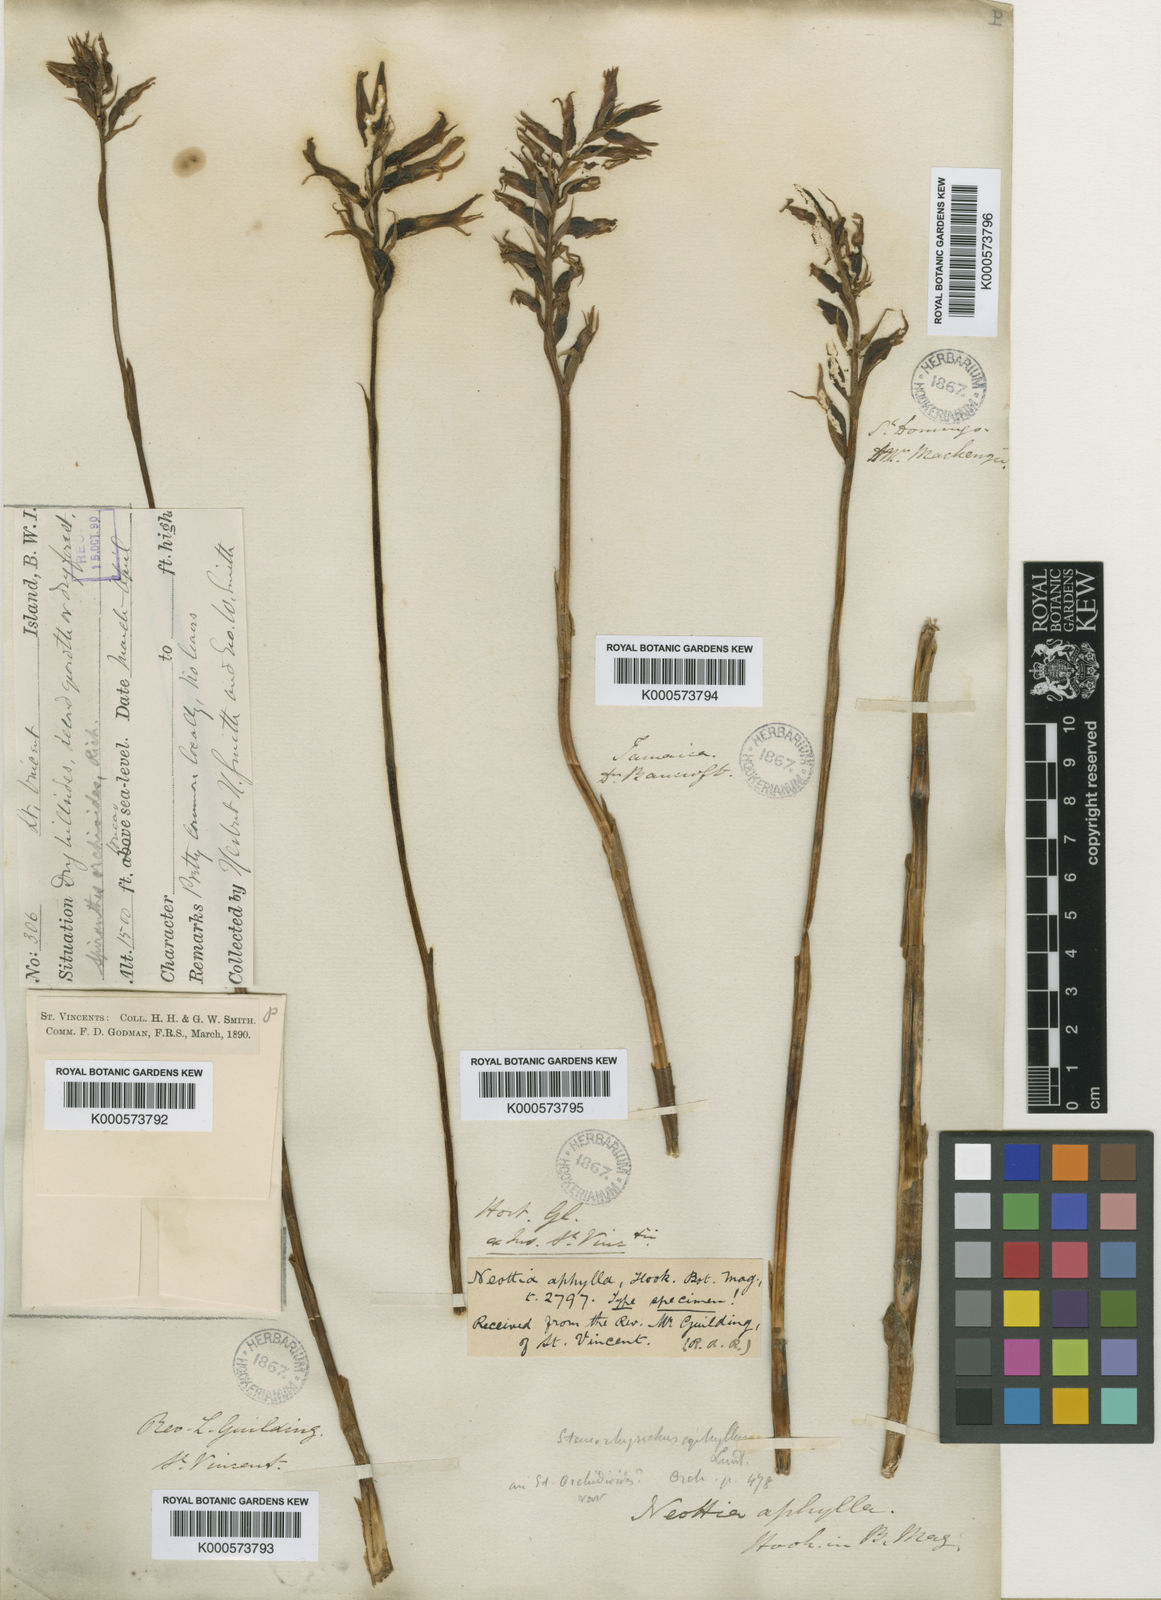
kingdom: Plantae
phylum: Tracheophyta
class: Liliopsida
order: Asparagales
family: Orchidaceae
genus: Sacoila
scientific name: Sacoila
